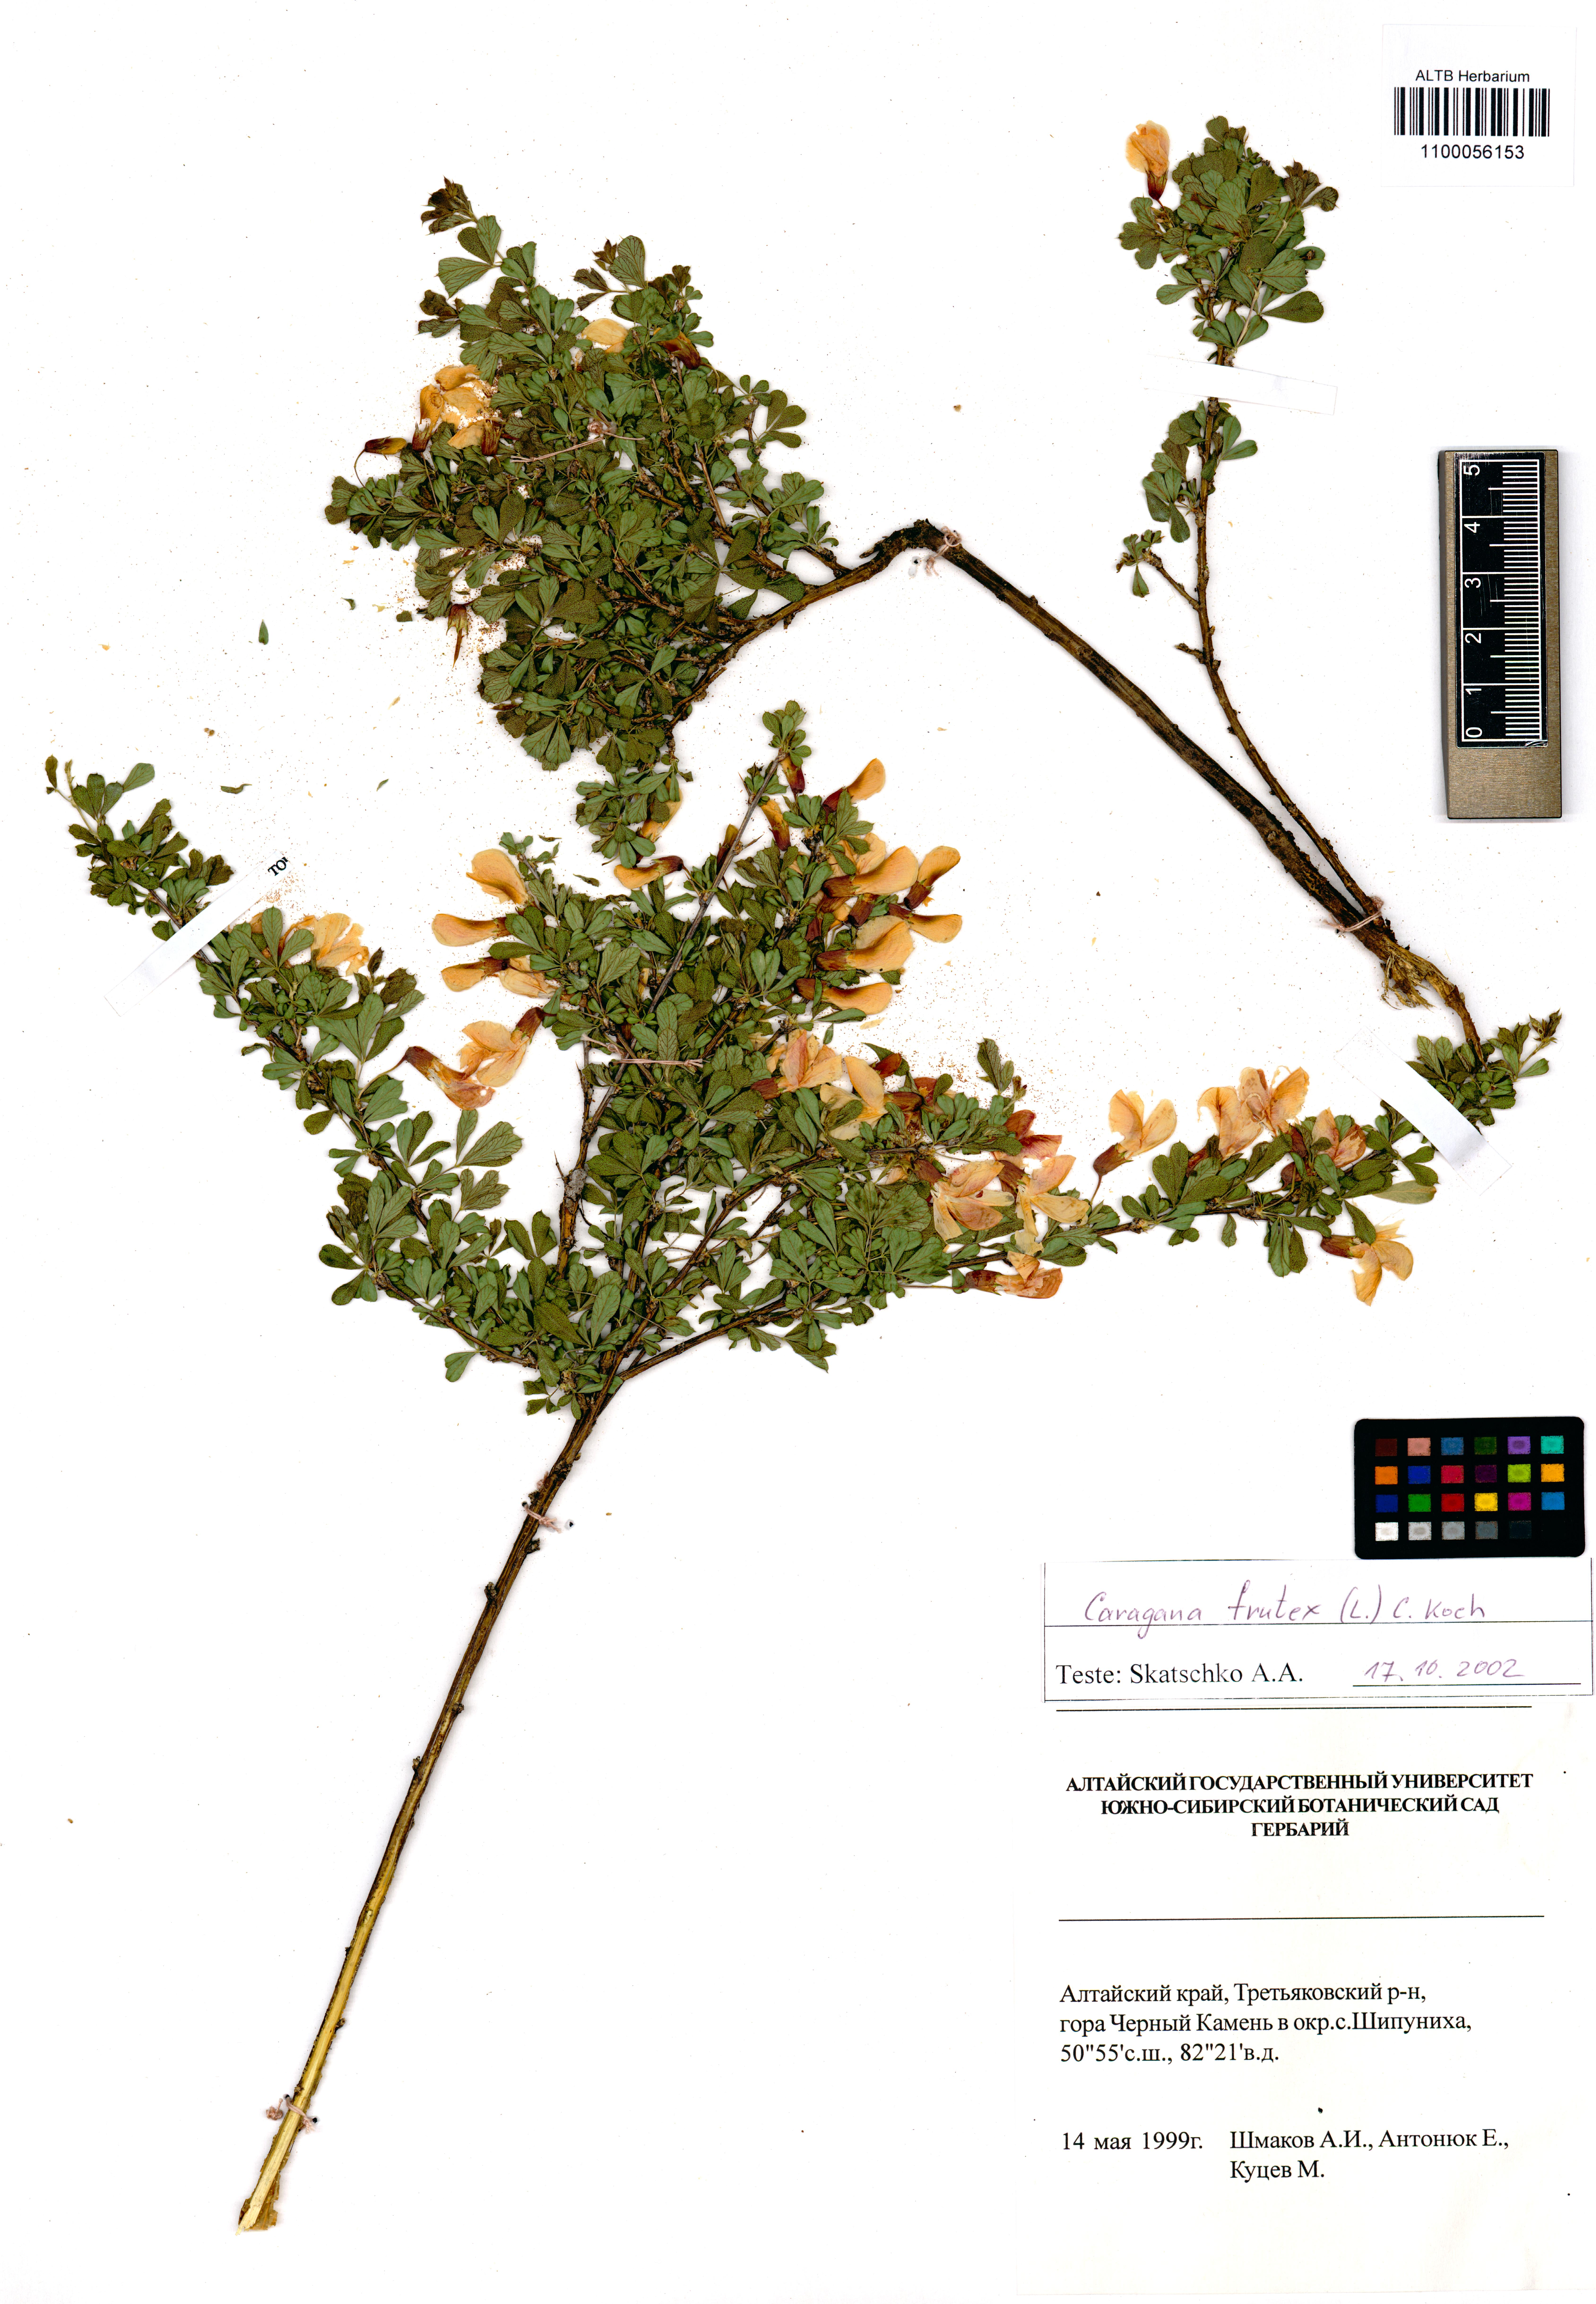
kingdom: Plantae
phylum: Tracheophyta
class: Magnoliopsida
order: Fabales
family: Fabaceae
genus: Caragana
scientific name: Caragana frutex
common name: Russian peashrub
